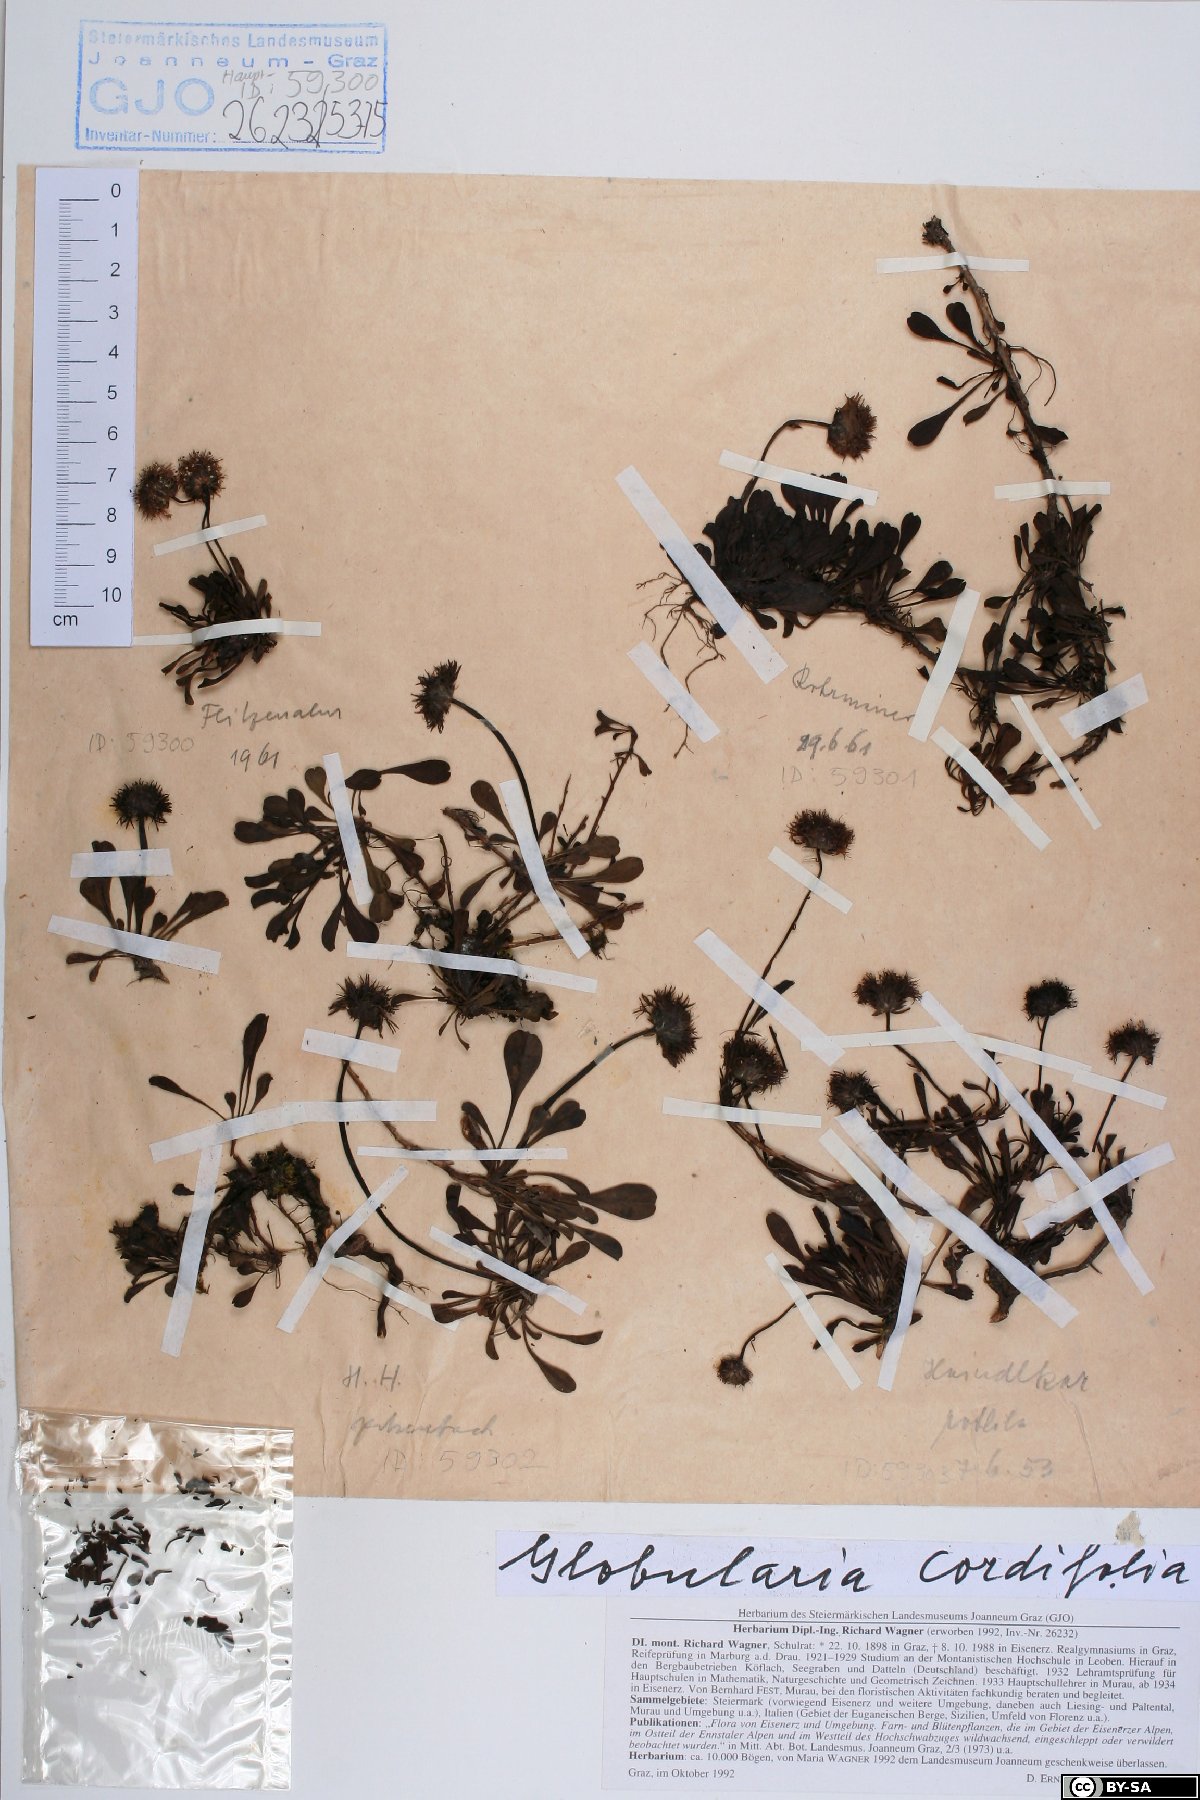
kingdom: Plantae
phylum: Tracheophyta
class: Magnoliopsida
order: Lamiales
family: Plantaginaceae
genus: Globularia
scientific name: Globularia cordifolia
